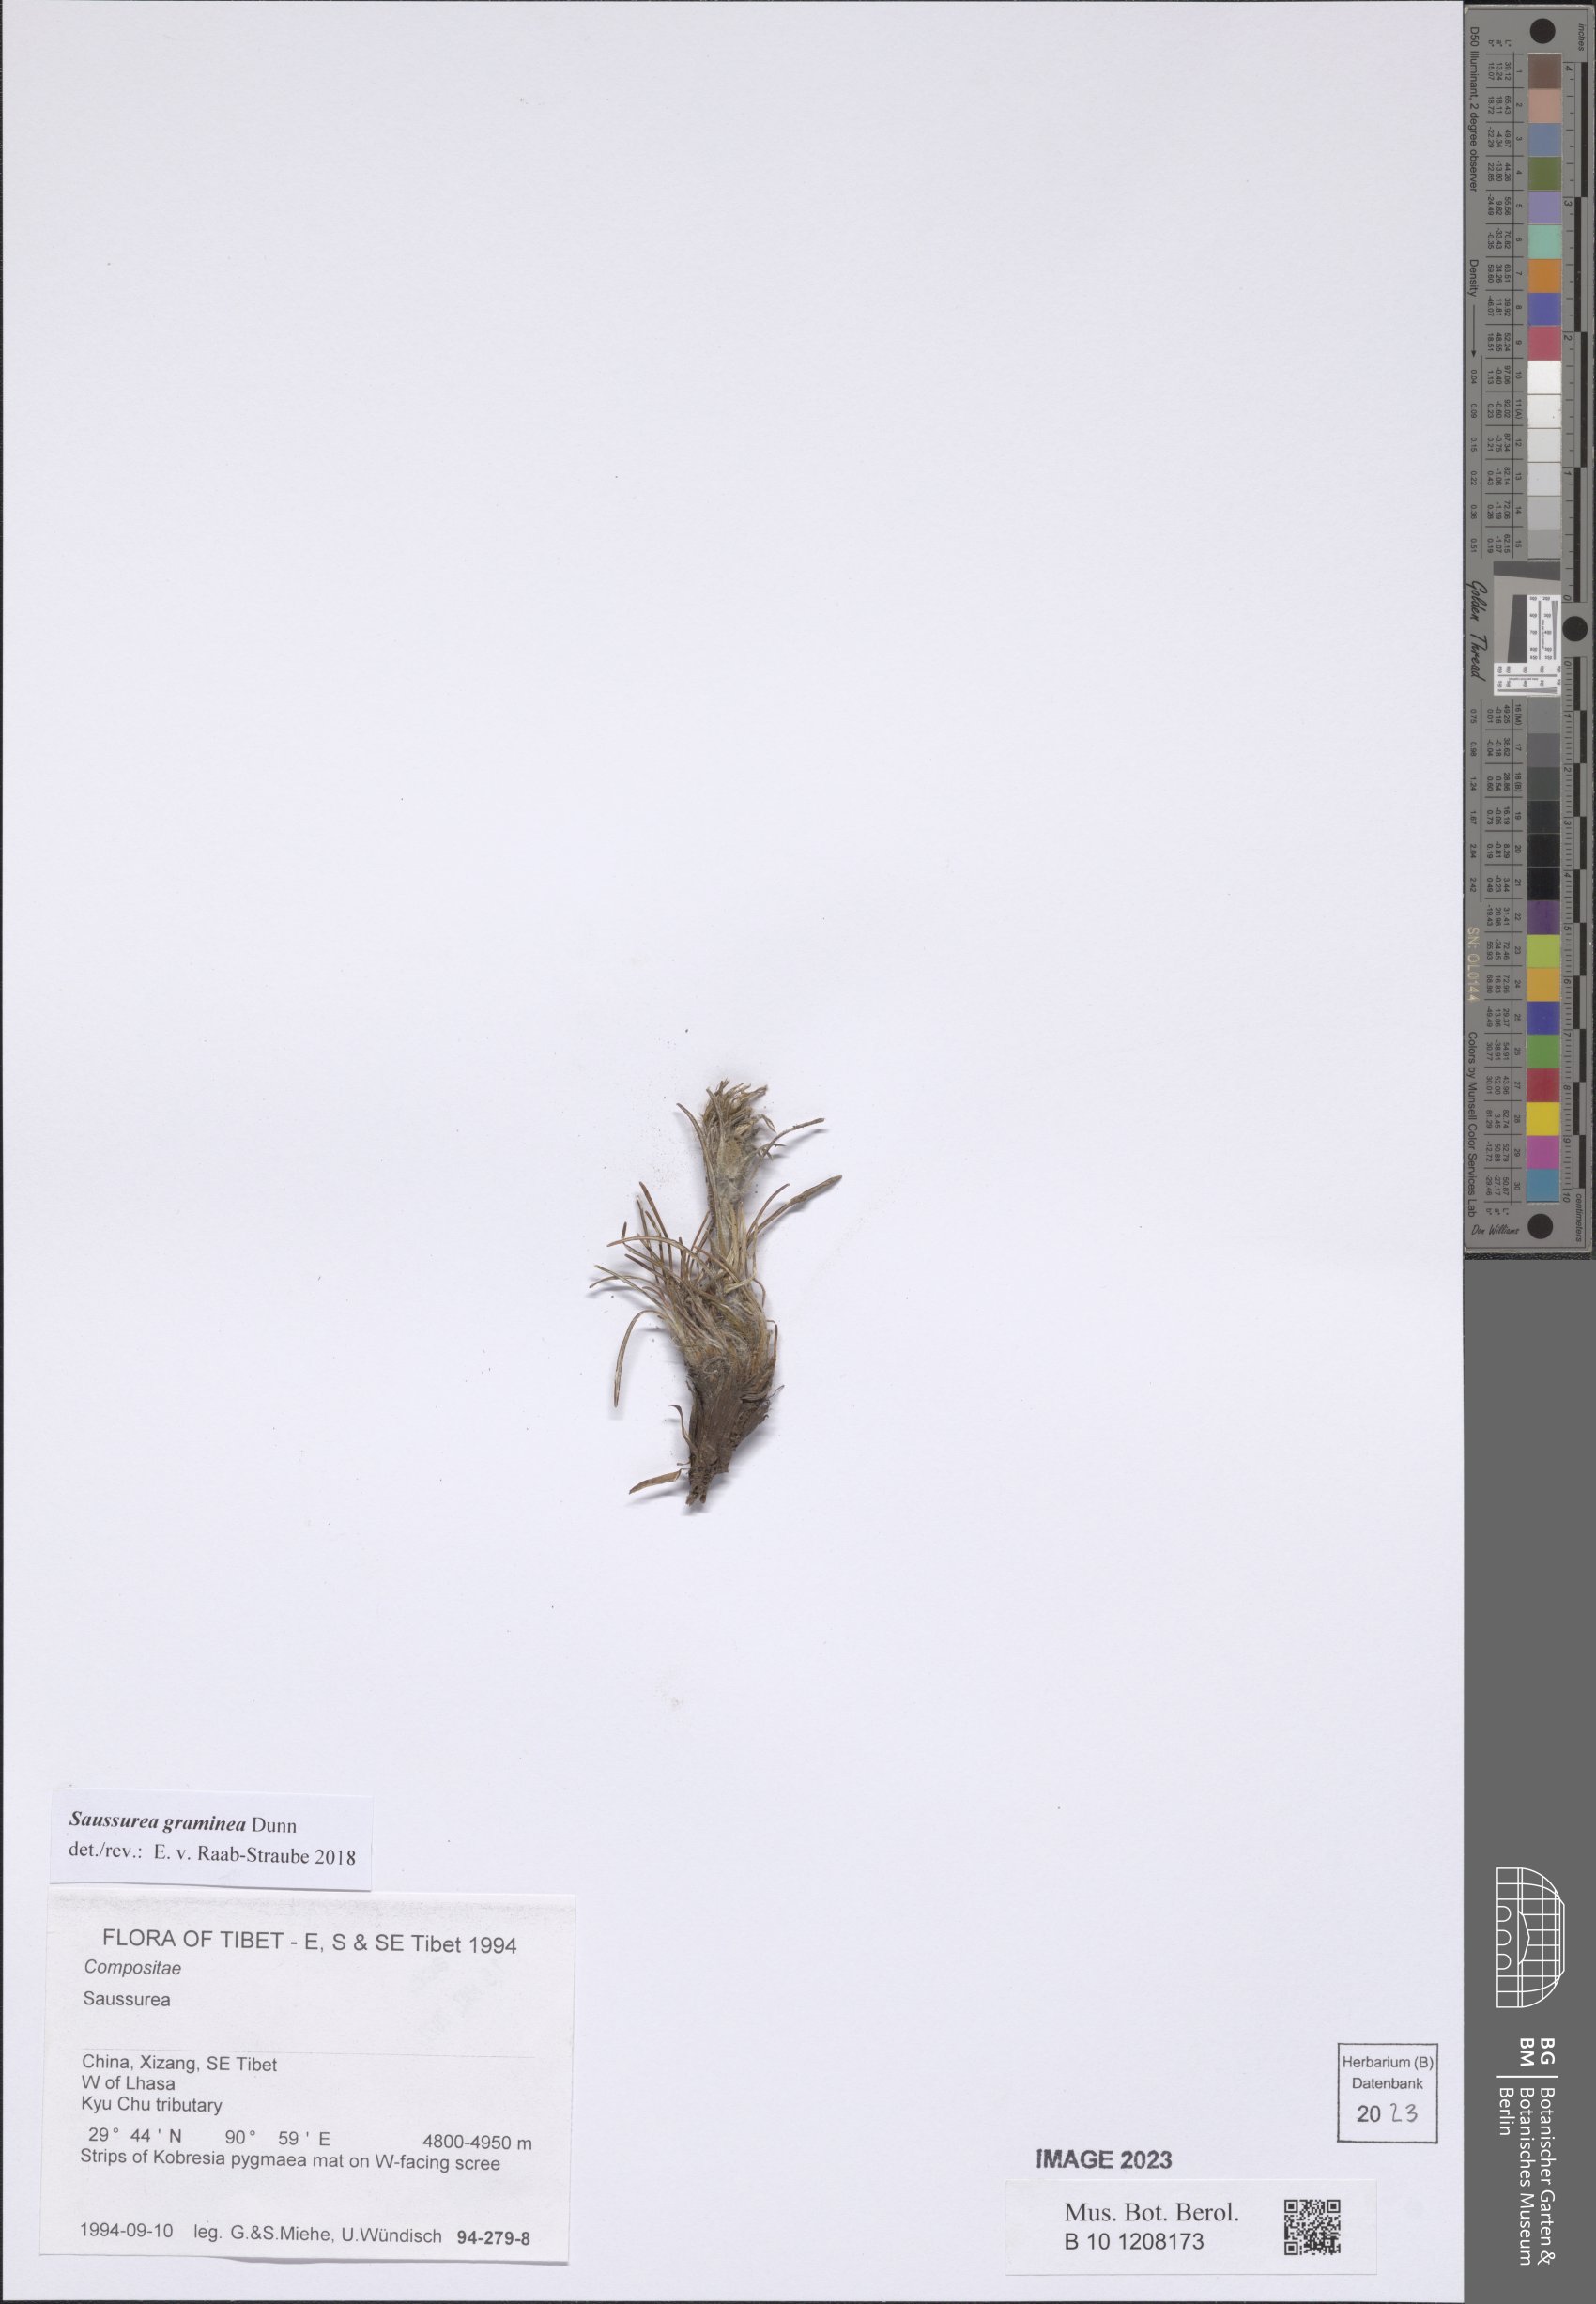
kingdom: Plantae
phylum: Tracheophyta
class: Magnoliopsida
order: Asterales
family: Asteraceae
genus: Saussurea
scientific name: Saussurea graminea
